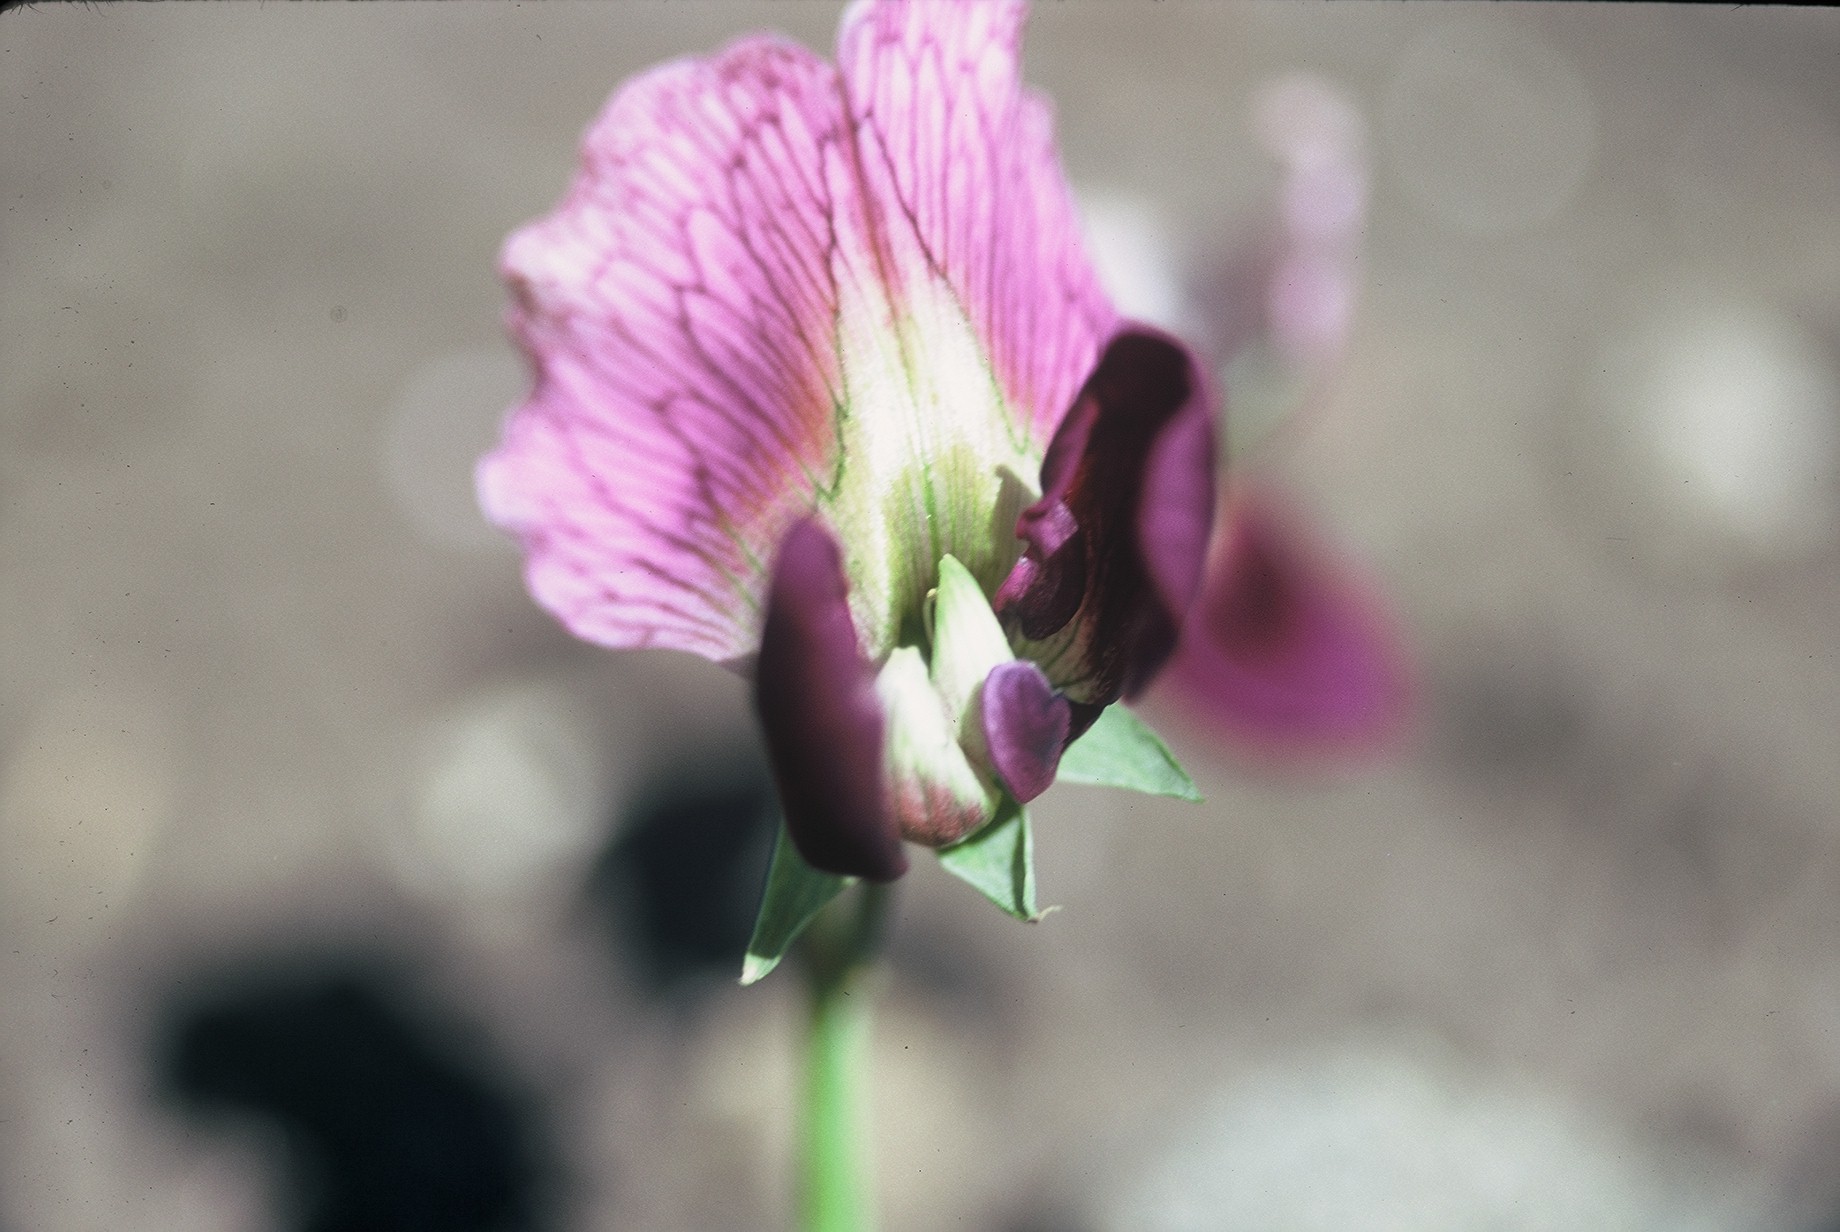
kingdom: Plantae
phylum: Tracheophyta
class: Magnoliopsida
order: Fabales
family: Fabaceae
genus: Lathyrus
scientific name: Lathyrus oleraceus
